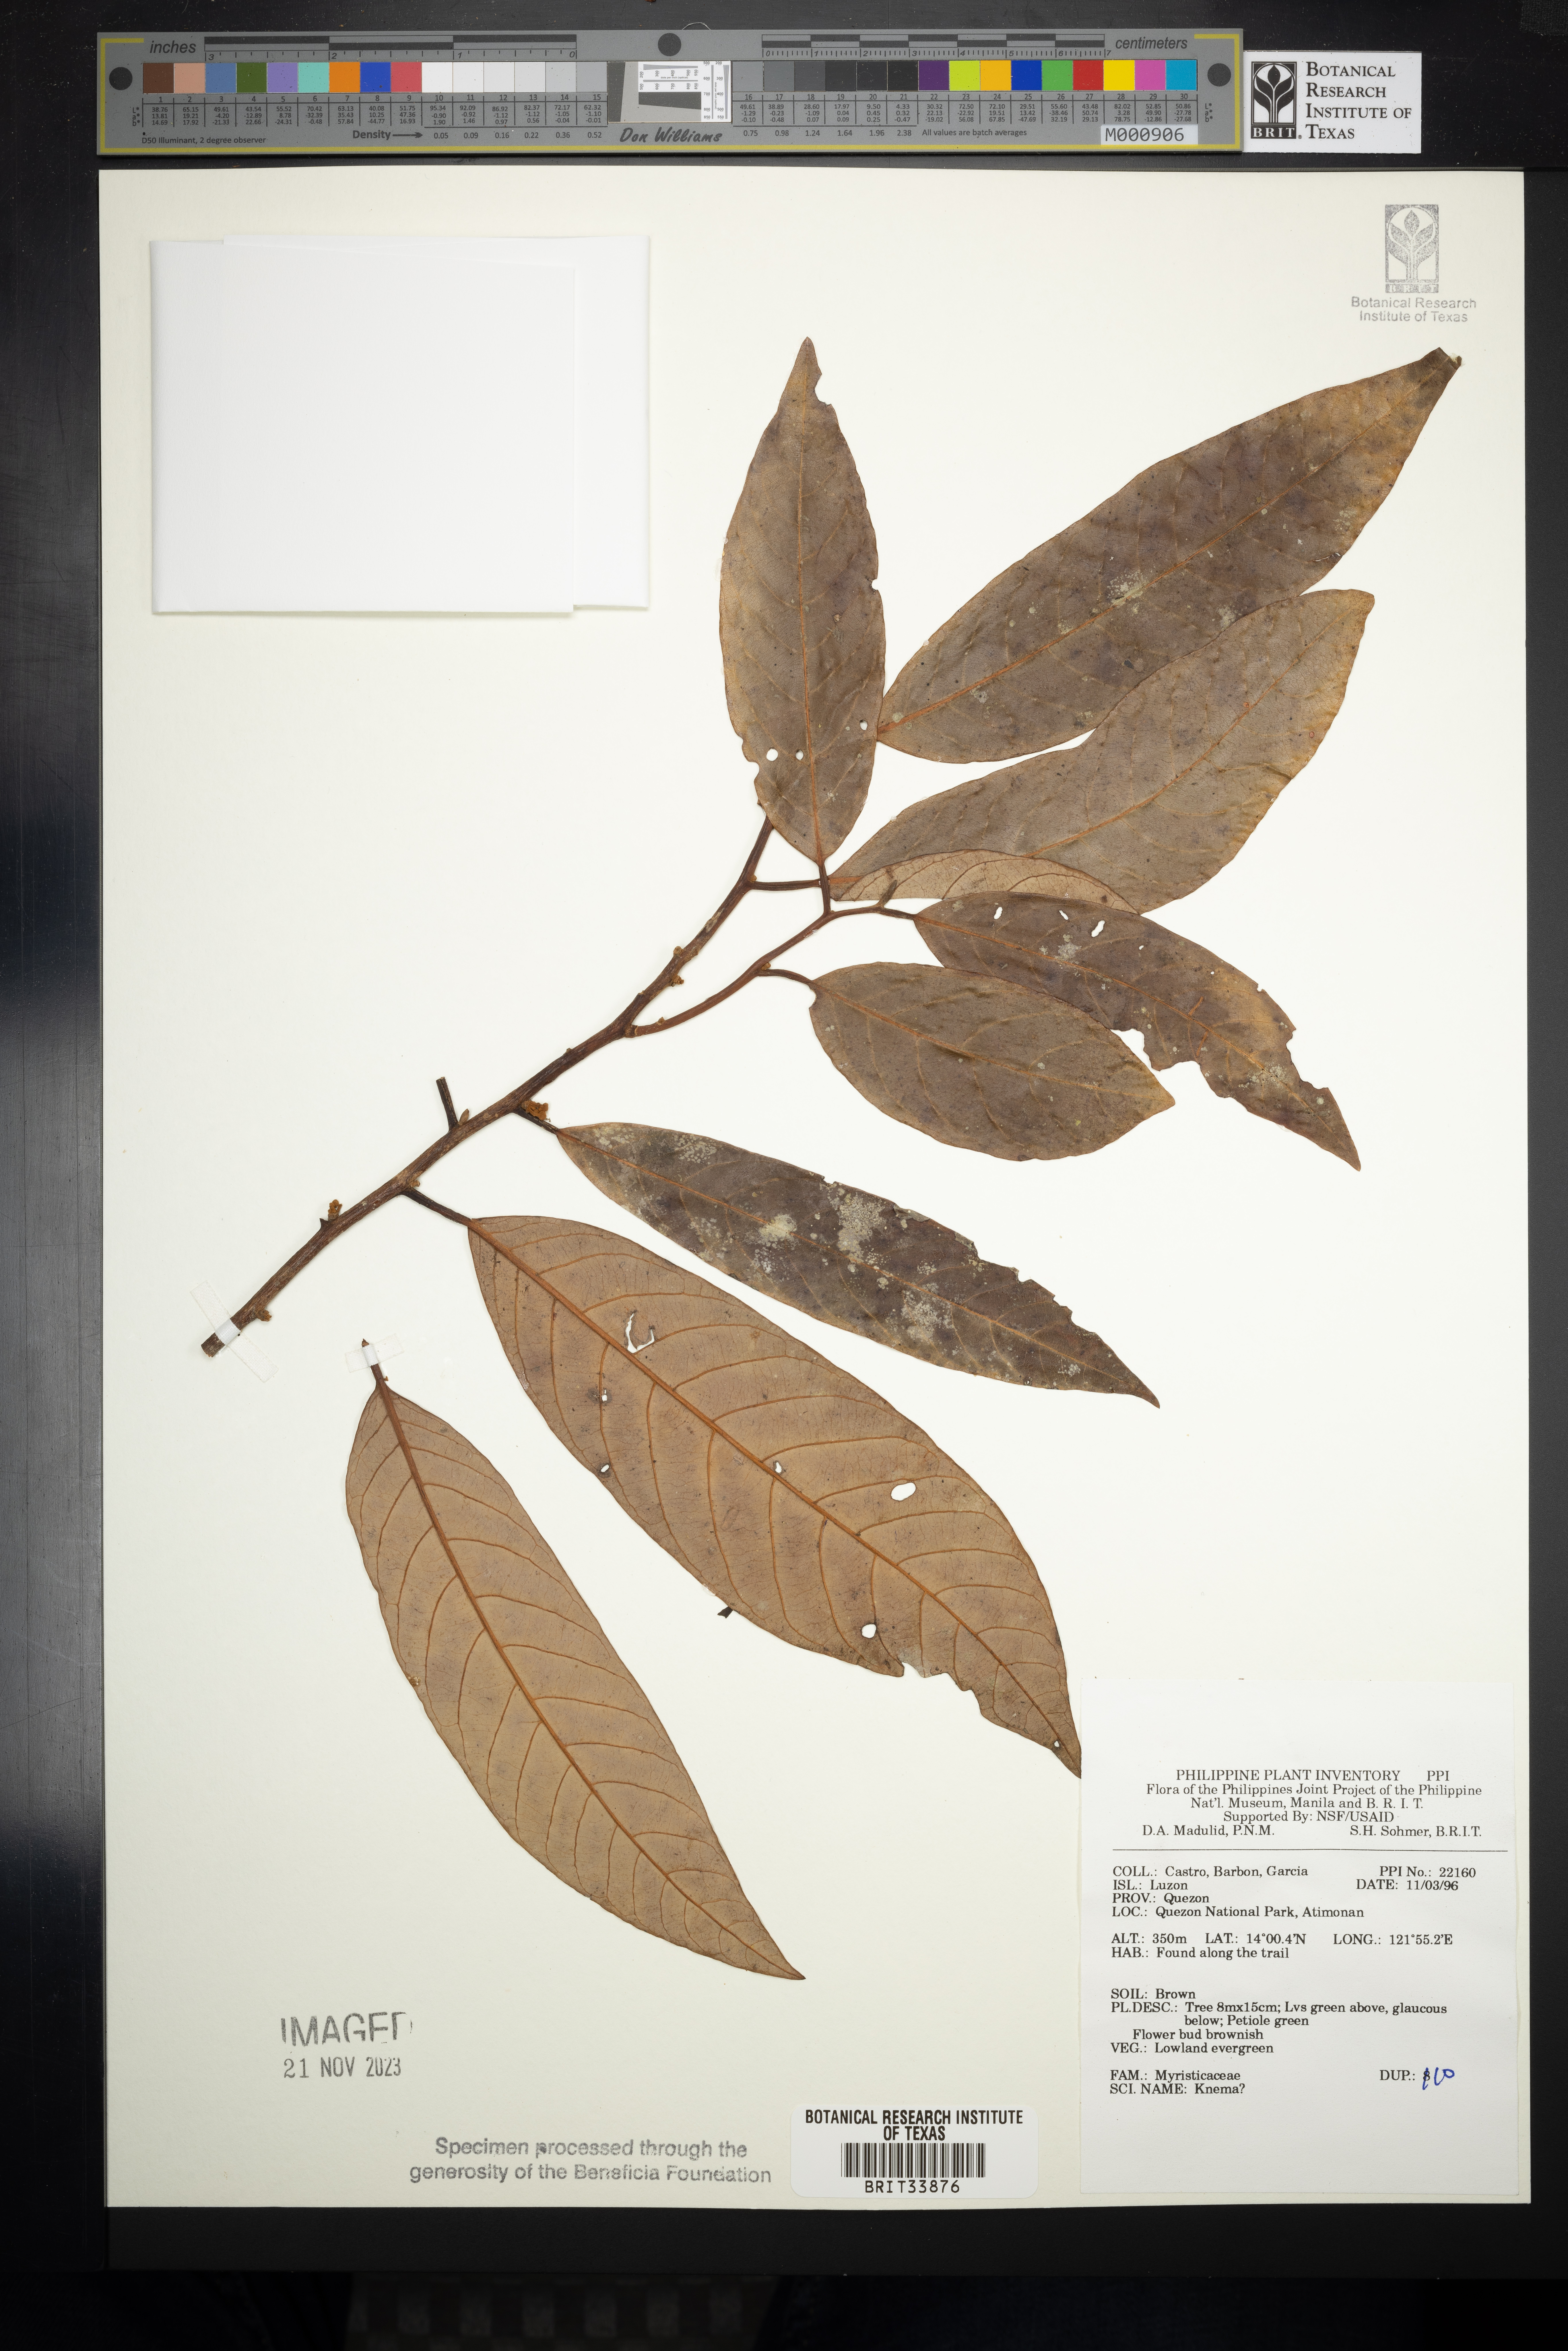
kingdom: Plantae
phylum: Tracheophyta
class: Magnoliopsida
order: Magnoliales
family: Myristicaceae
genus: Knema
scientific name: Knema
